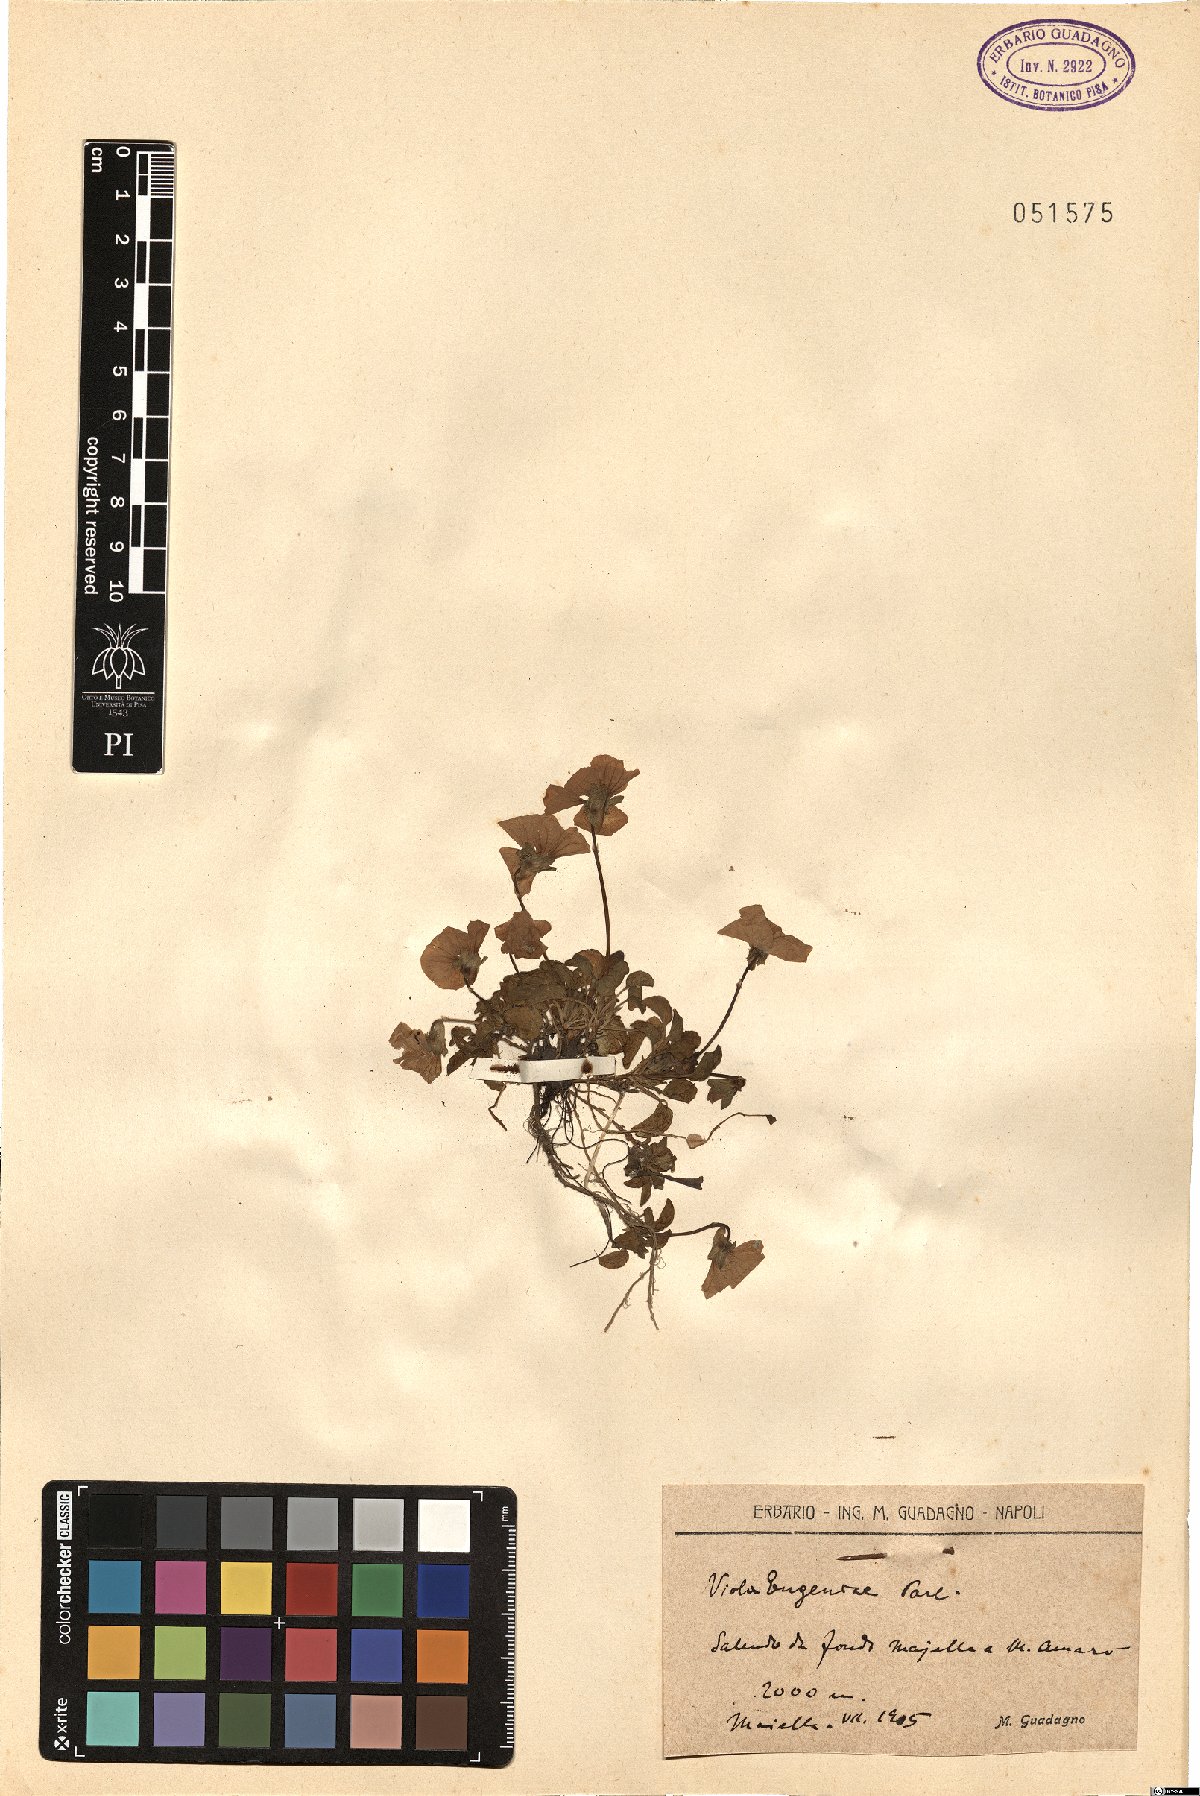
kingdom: Plantae
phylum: Tracheophyta
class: Magnoliopsida
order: Malpighiales
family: Violaceae
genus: Viola
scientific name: Viola eugeniae
